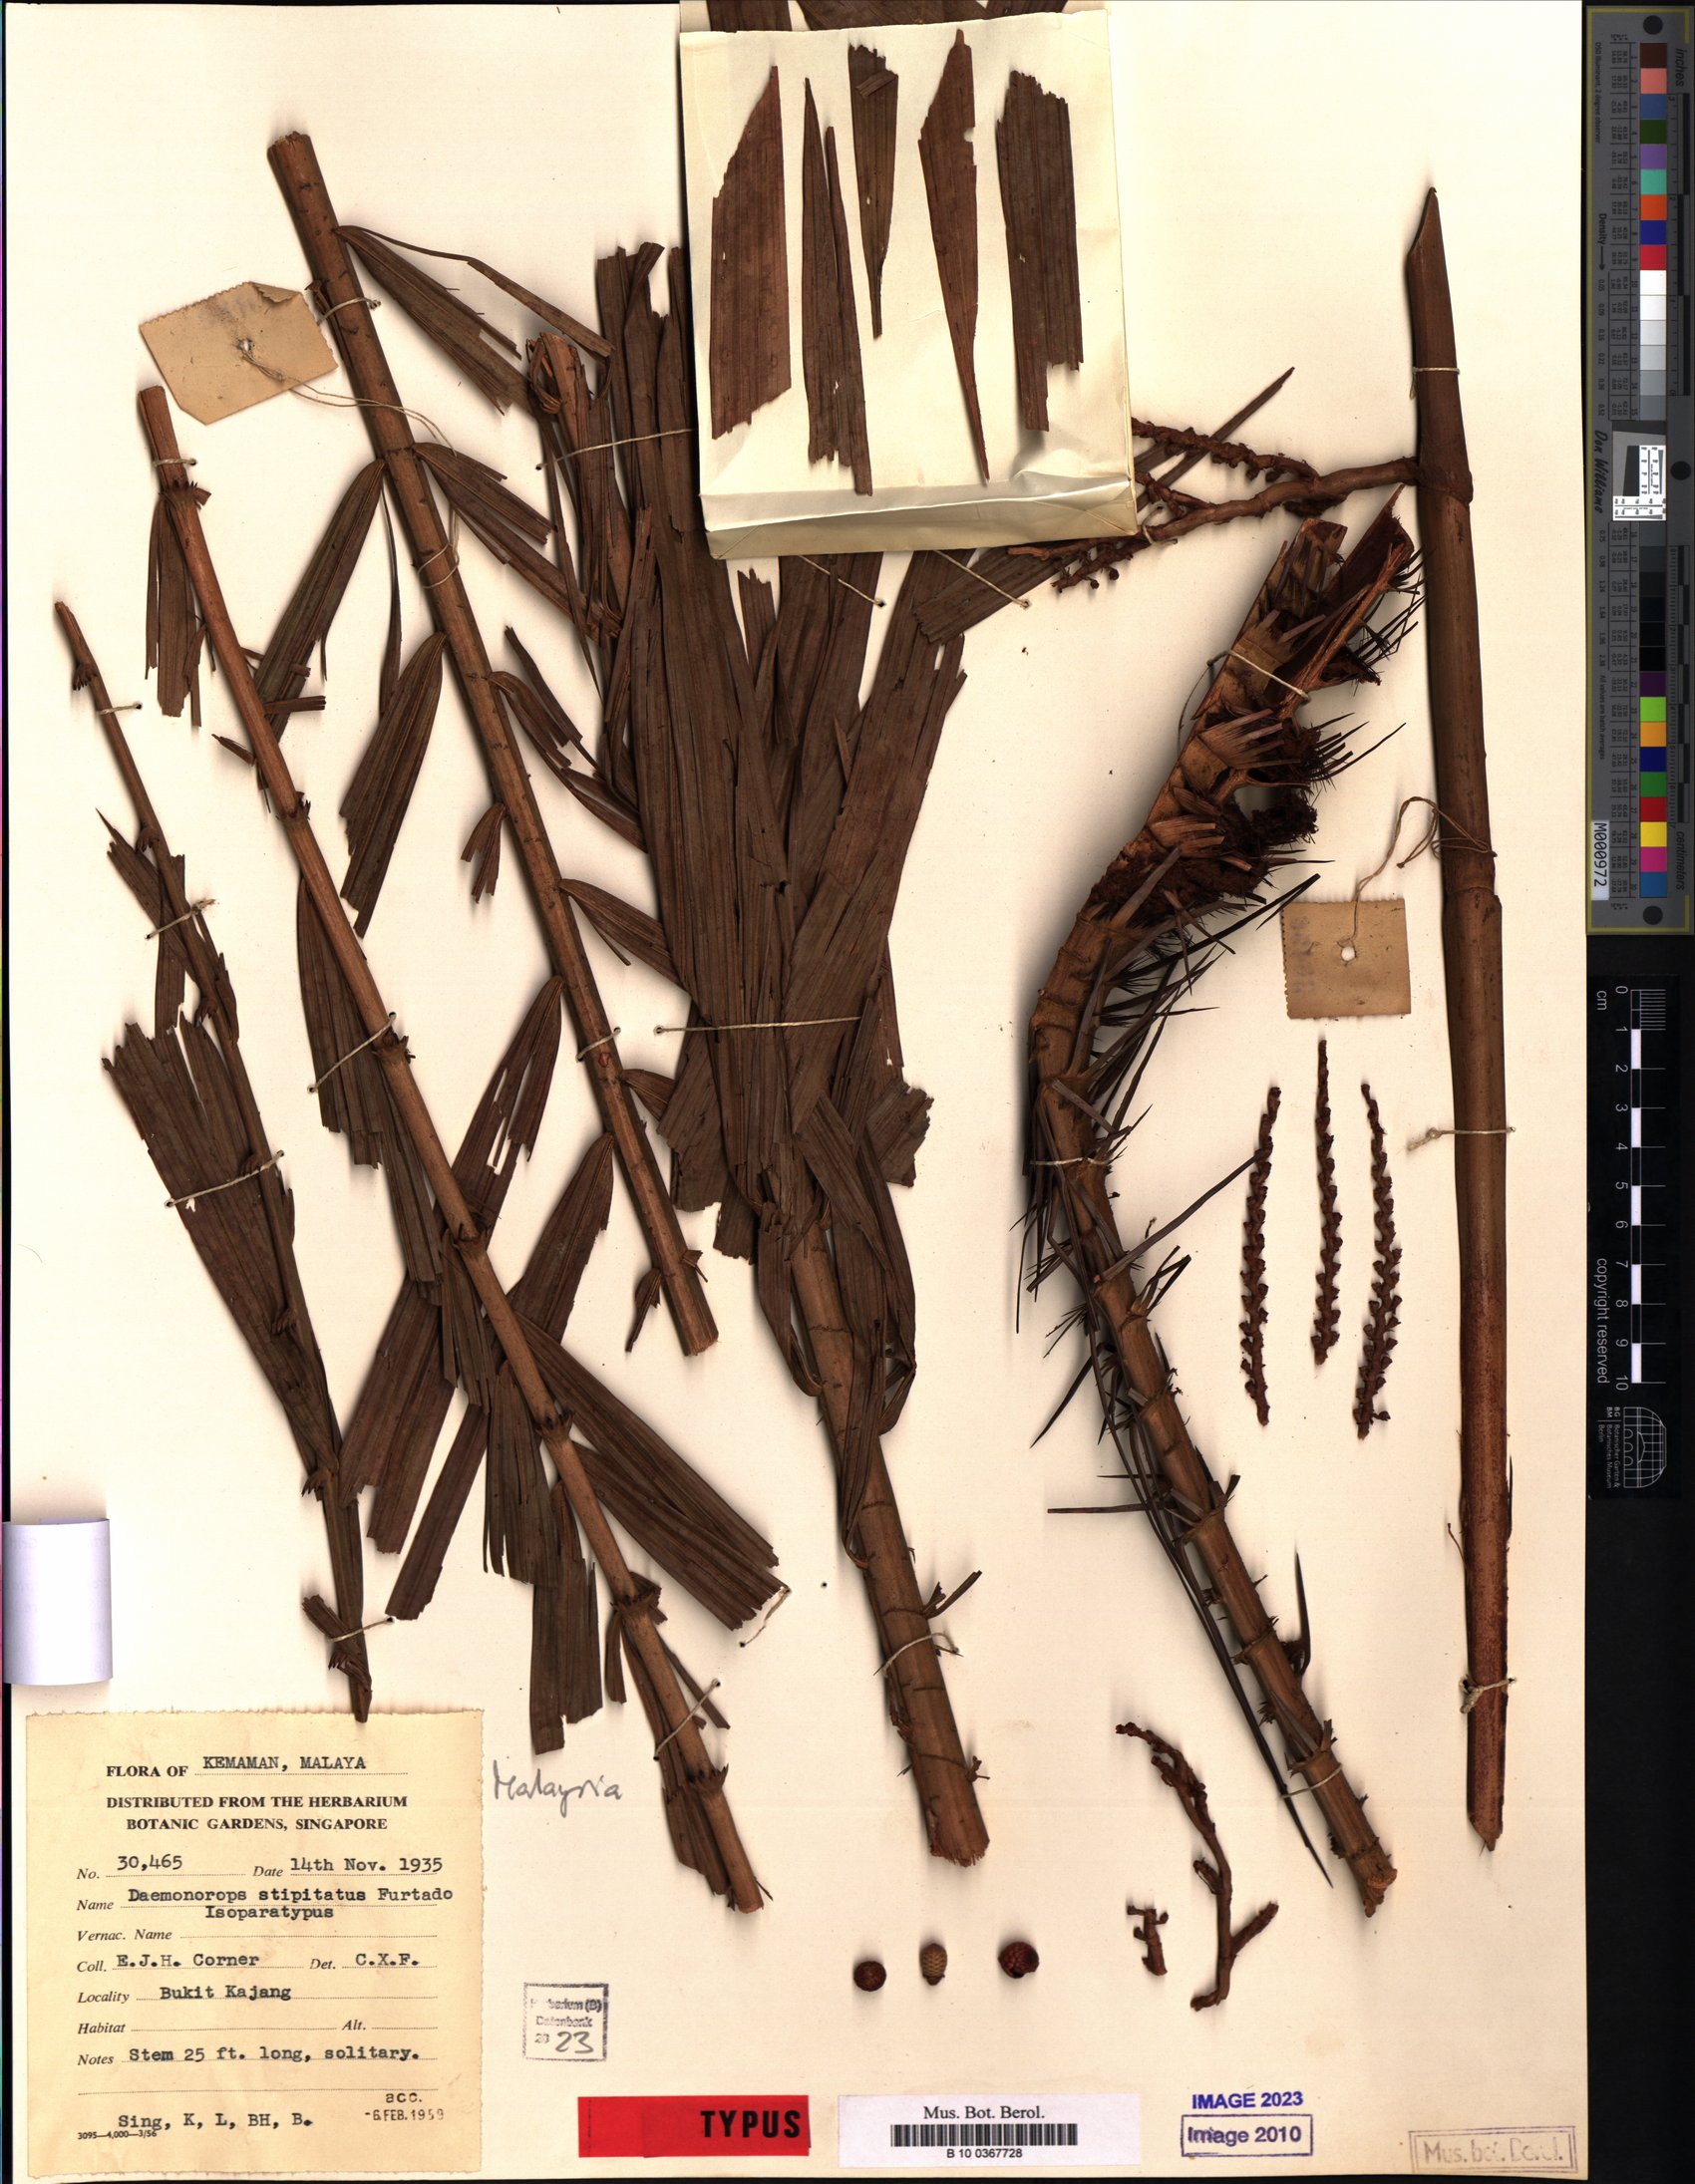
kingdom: Plantae
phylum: Tracheophyta
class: Liliopsida
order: Arecales
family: Arecaceae
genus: Calamus
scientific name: Calamus verticillaris
